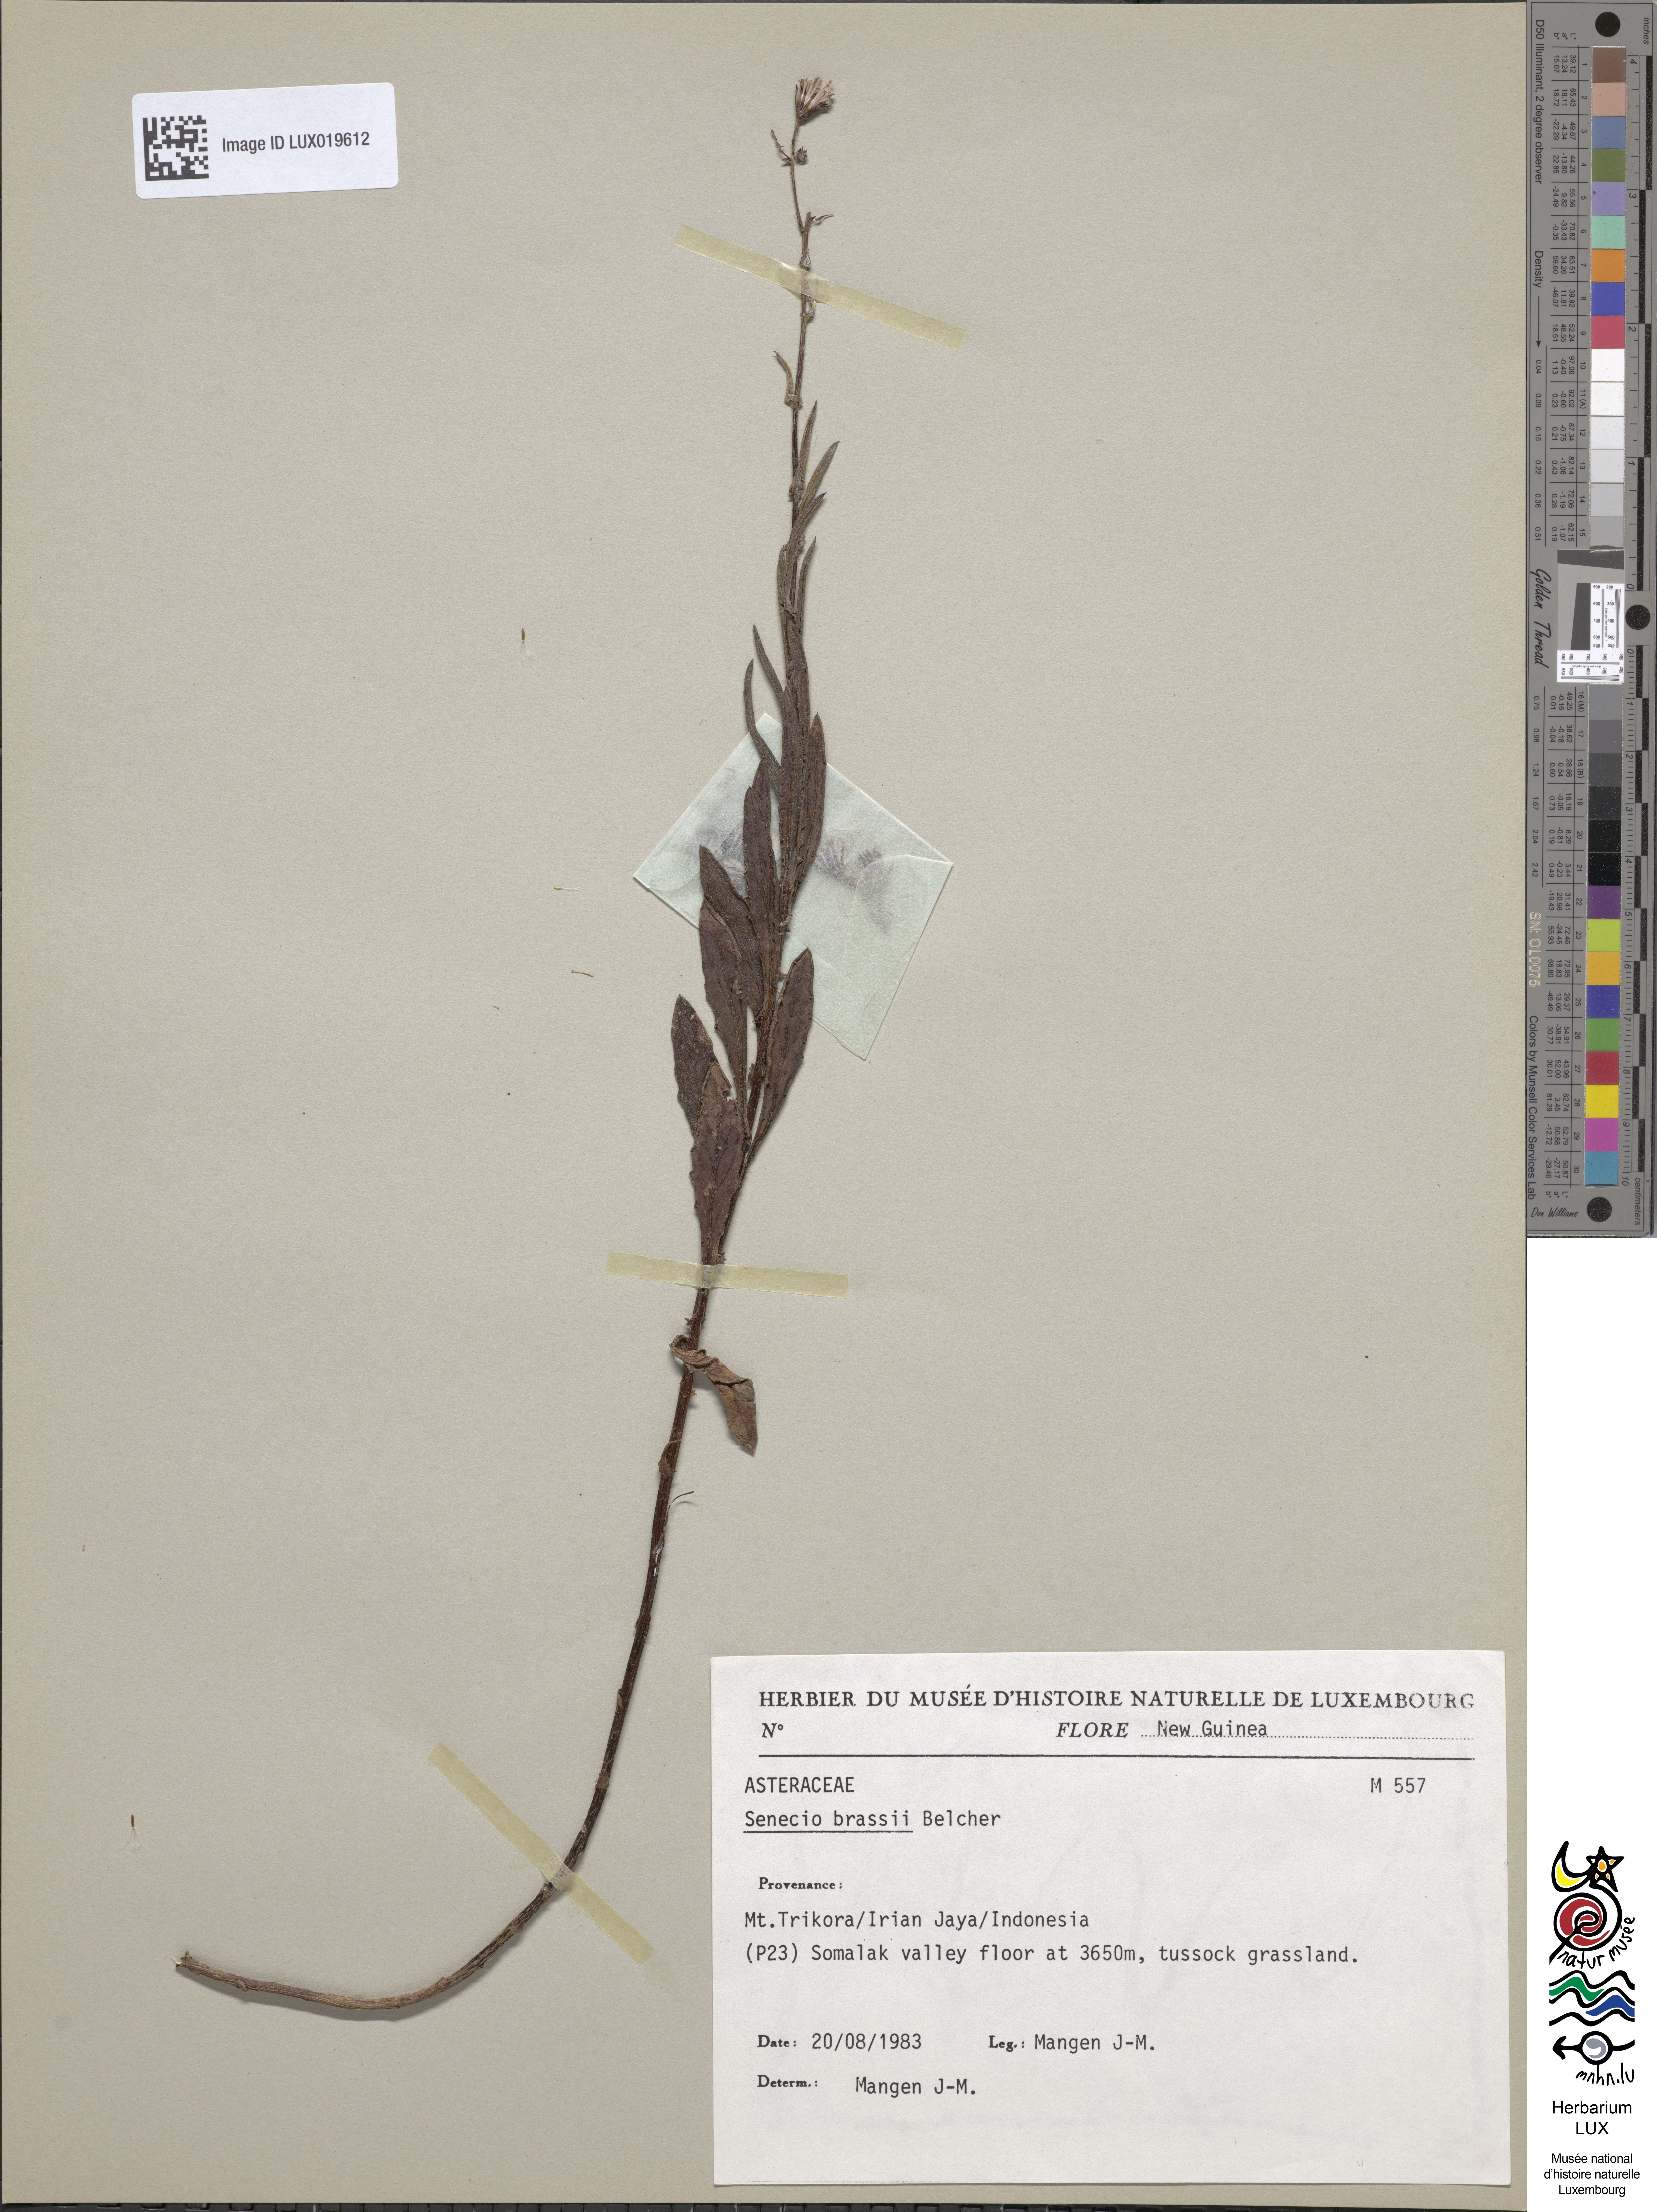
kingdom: Plantae
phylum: Tracheophyta
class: Magnoliopsida
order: Asterales
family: Asteraceae
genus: Senecio
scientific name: Senecio brassii
